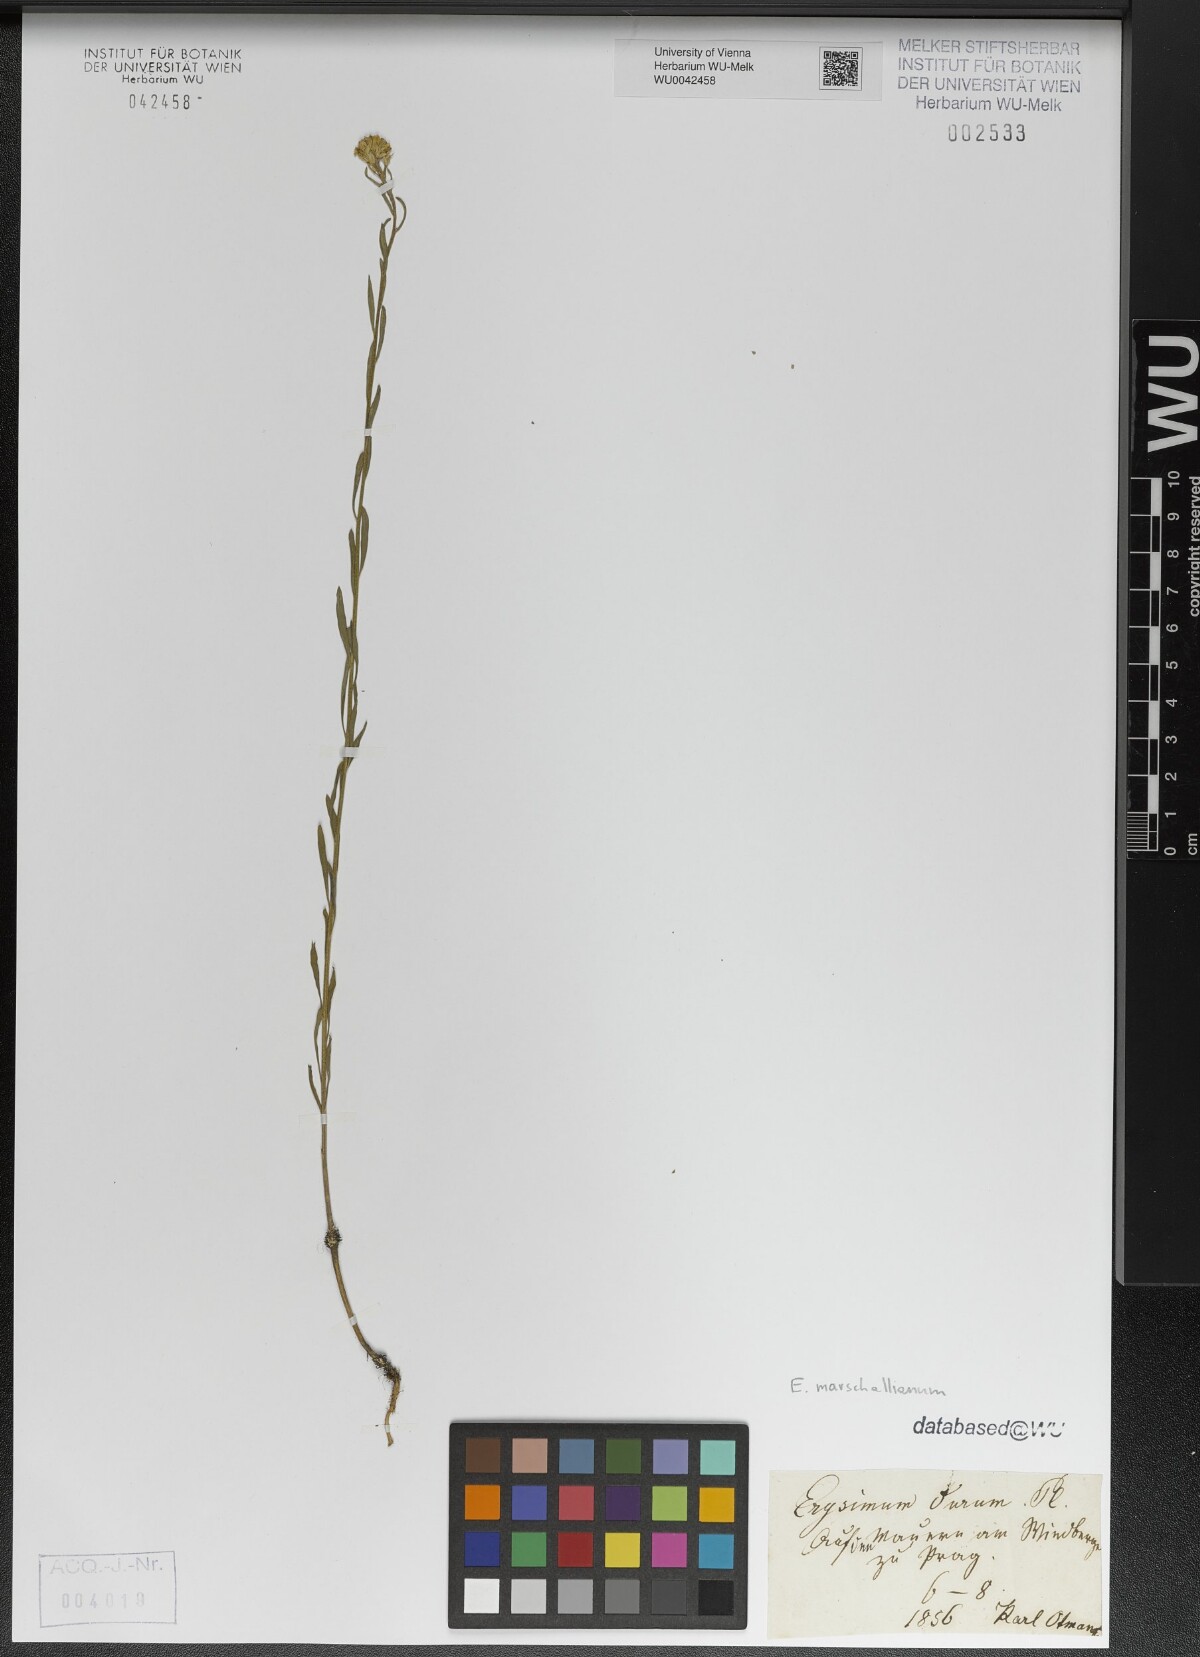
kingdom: Plantae
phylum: Tracheophyta
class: Magnoliopsida
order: Brassicales
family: Brassicaceae
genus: Erysimum
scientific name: Erysimum marschallianum
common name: Hard wallflower
